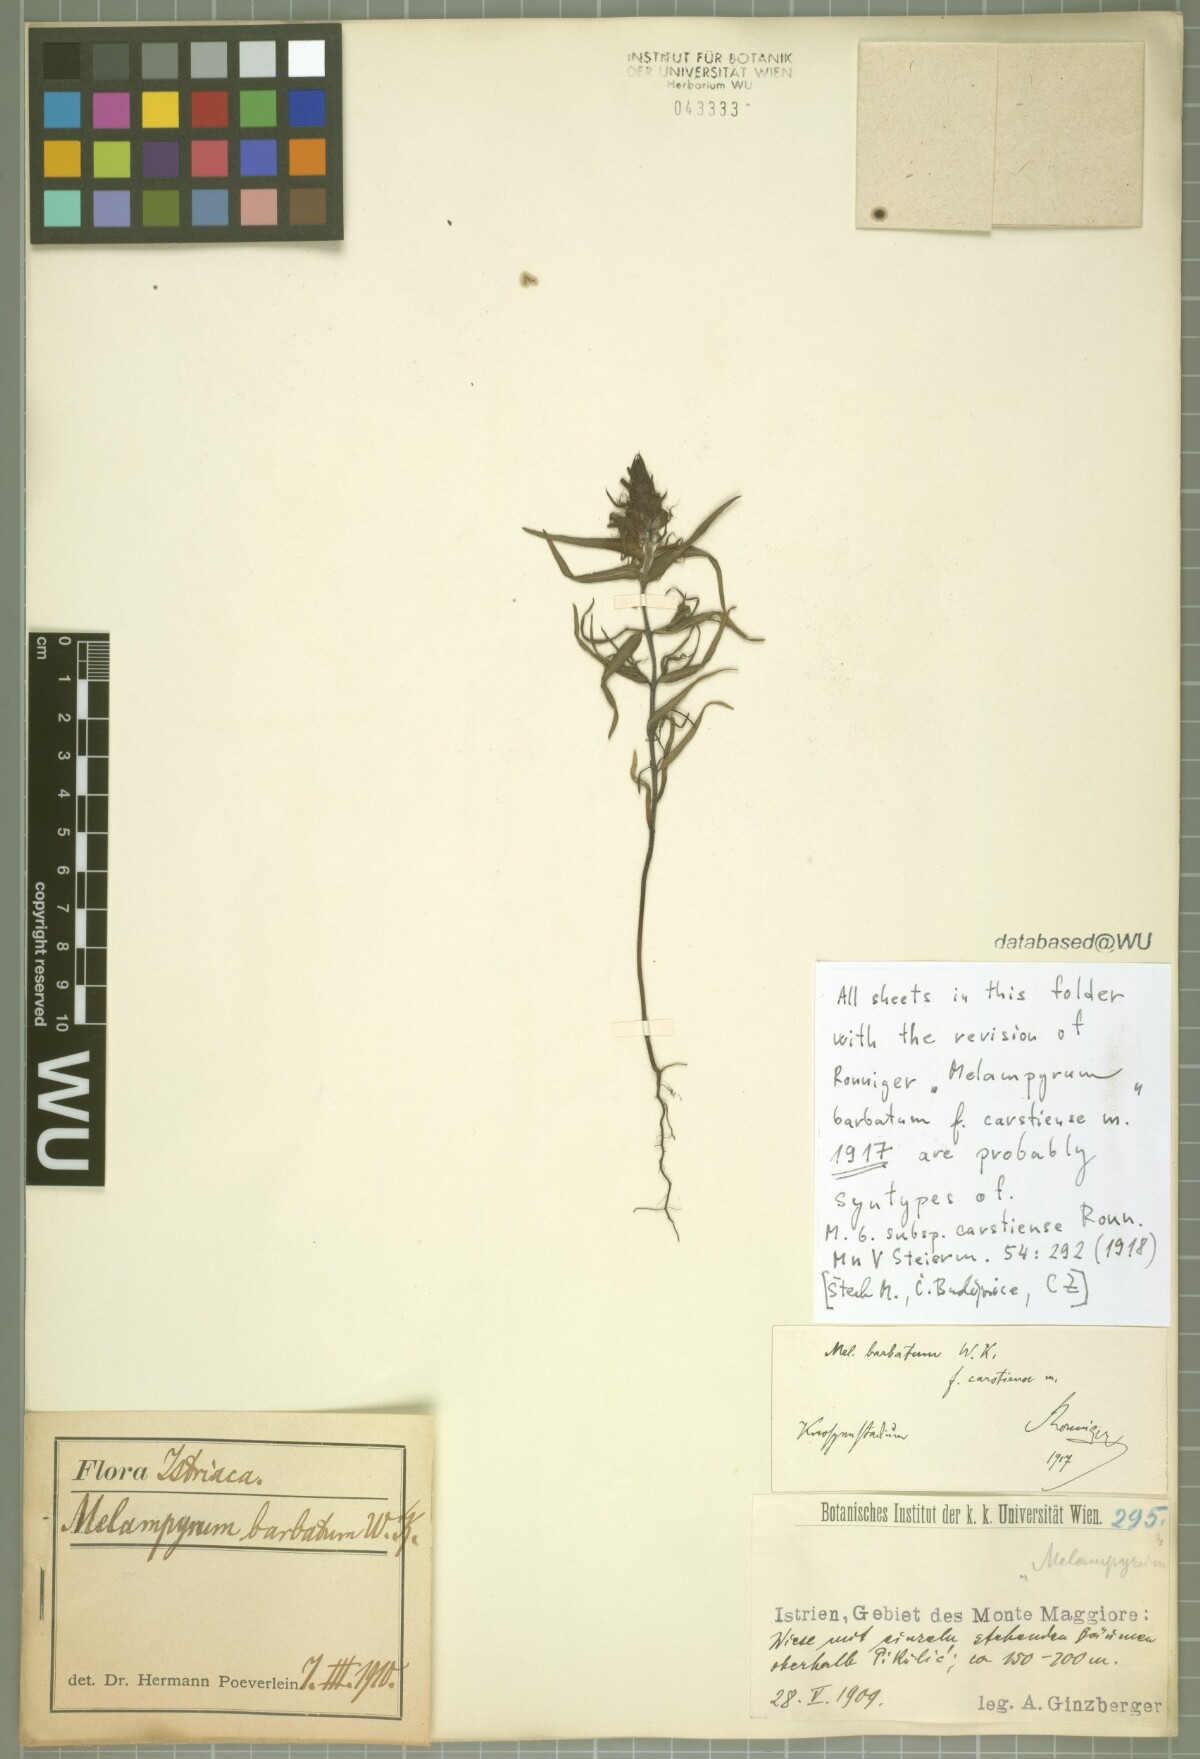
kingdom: Plantae
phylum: Tracheophyta
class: Magnoliopsida
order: Lamiales
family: Orobanchaceae
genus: Melampyrum
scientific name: Melampyrum barbatum
